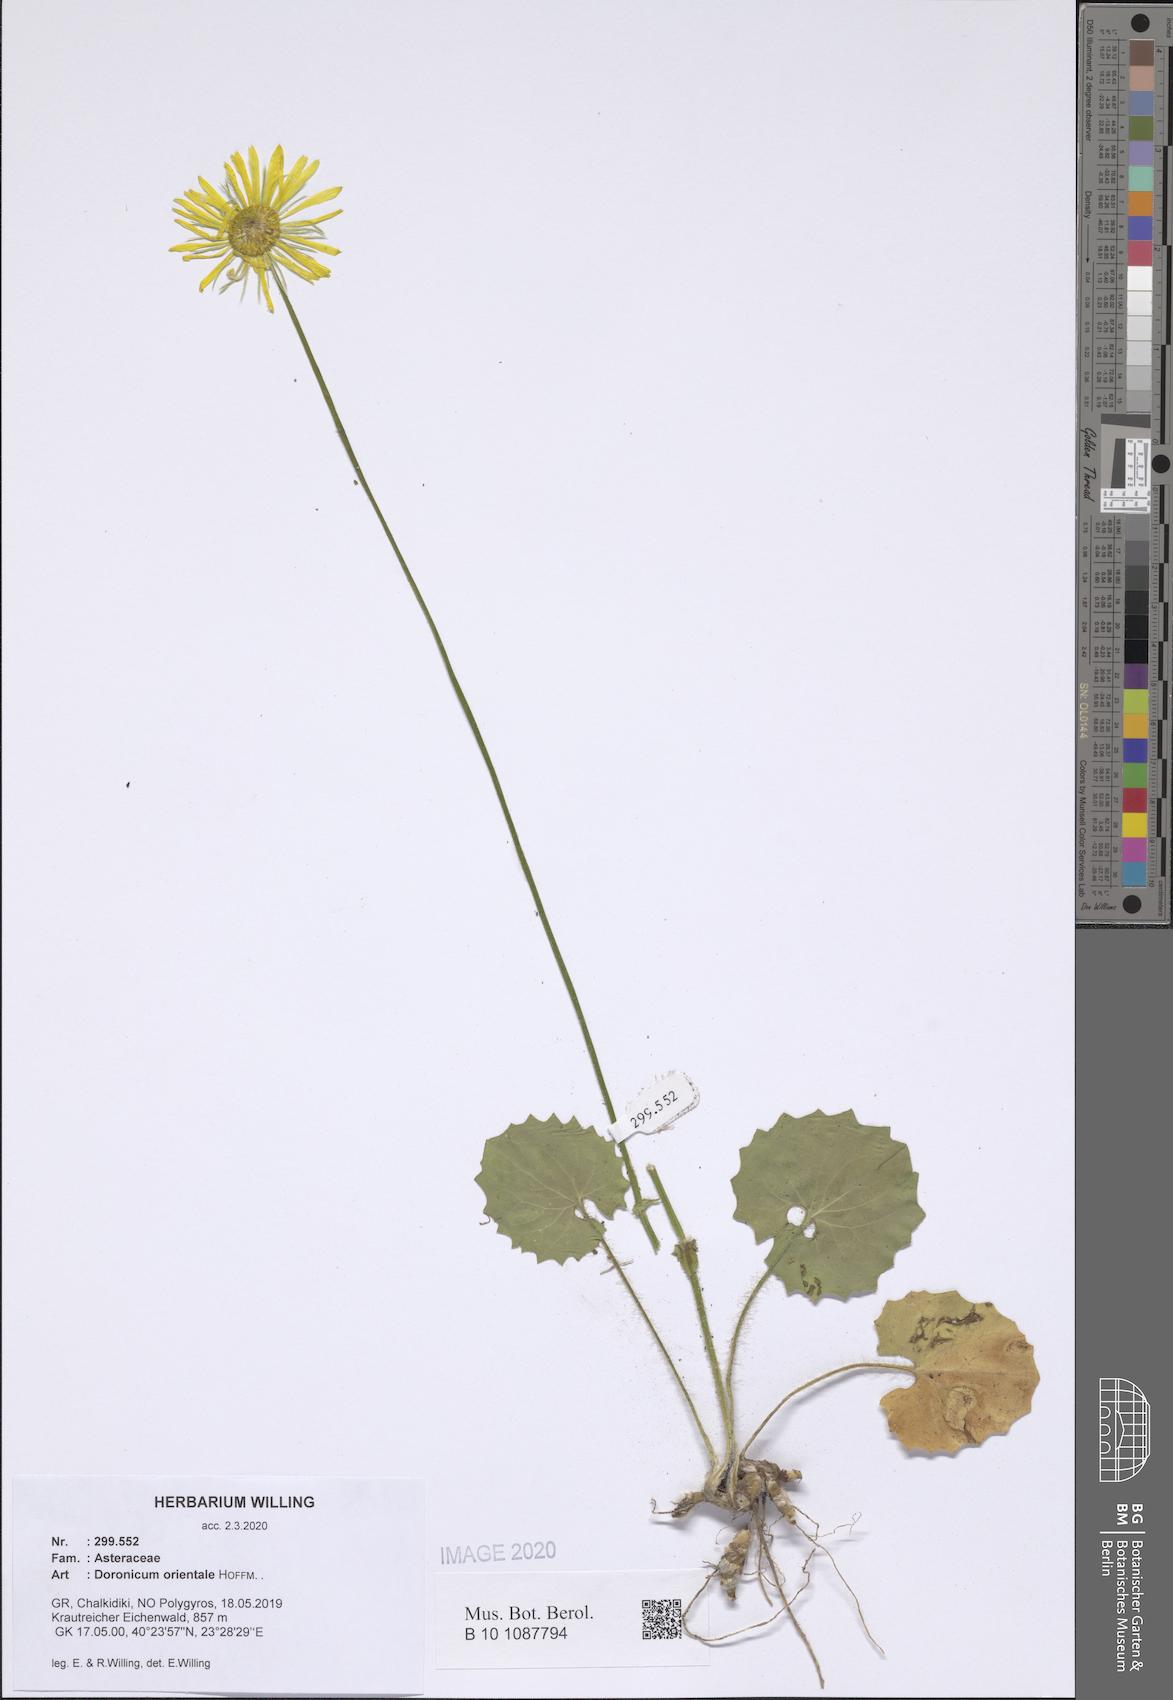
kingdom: Plantae
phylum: Tracheophyta
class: Magnoliopsida
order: Asterales
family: Asteraceae
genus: Doronicum
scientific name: Doronicum orientale
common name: Oriental leopard's-bane
